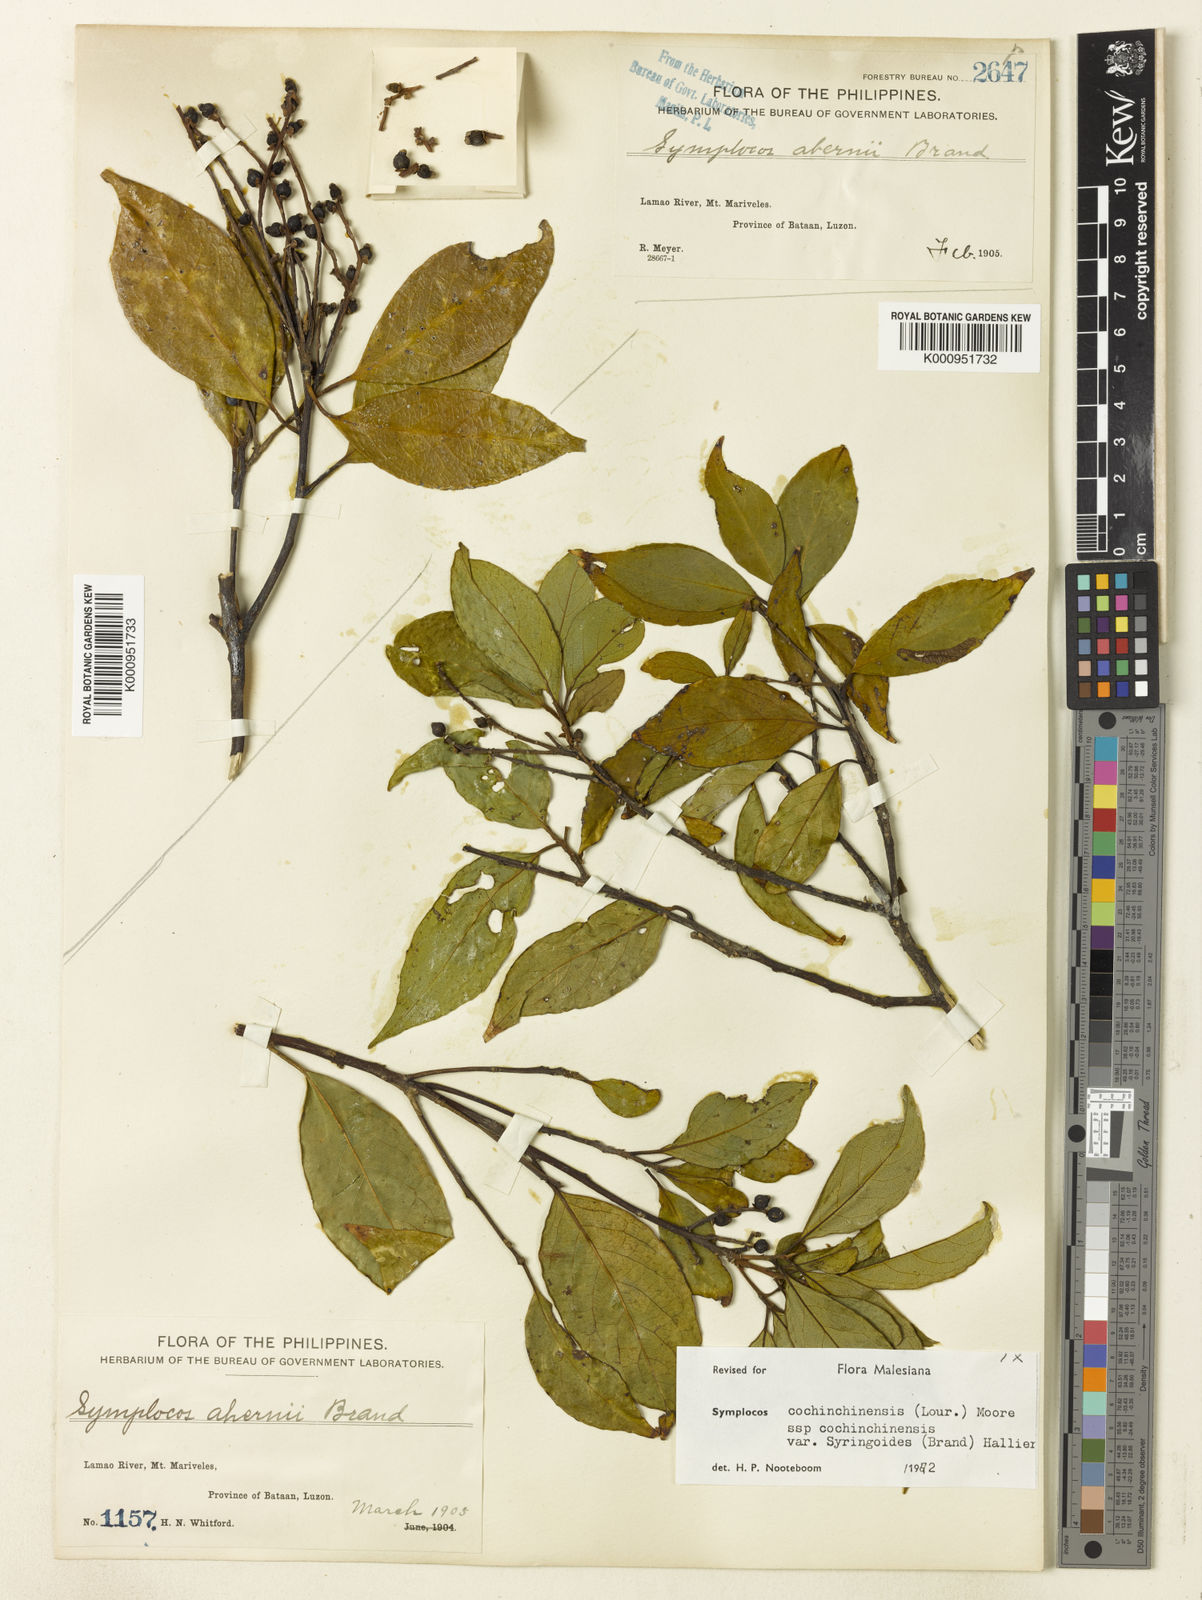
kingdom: Plantae
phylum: Tracheophyta
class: Magnoliopsida
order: Ericales
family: Symplocaceae
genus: Symplocos
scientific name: Symplocos cochinchinensis
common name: Buff hazelwood
